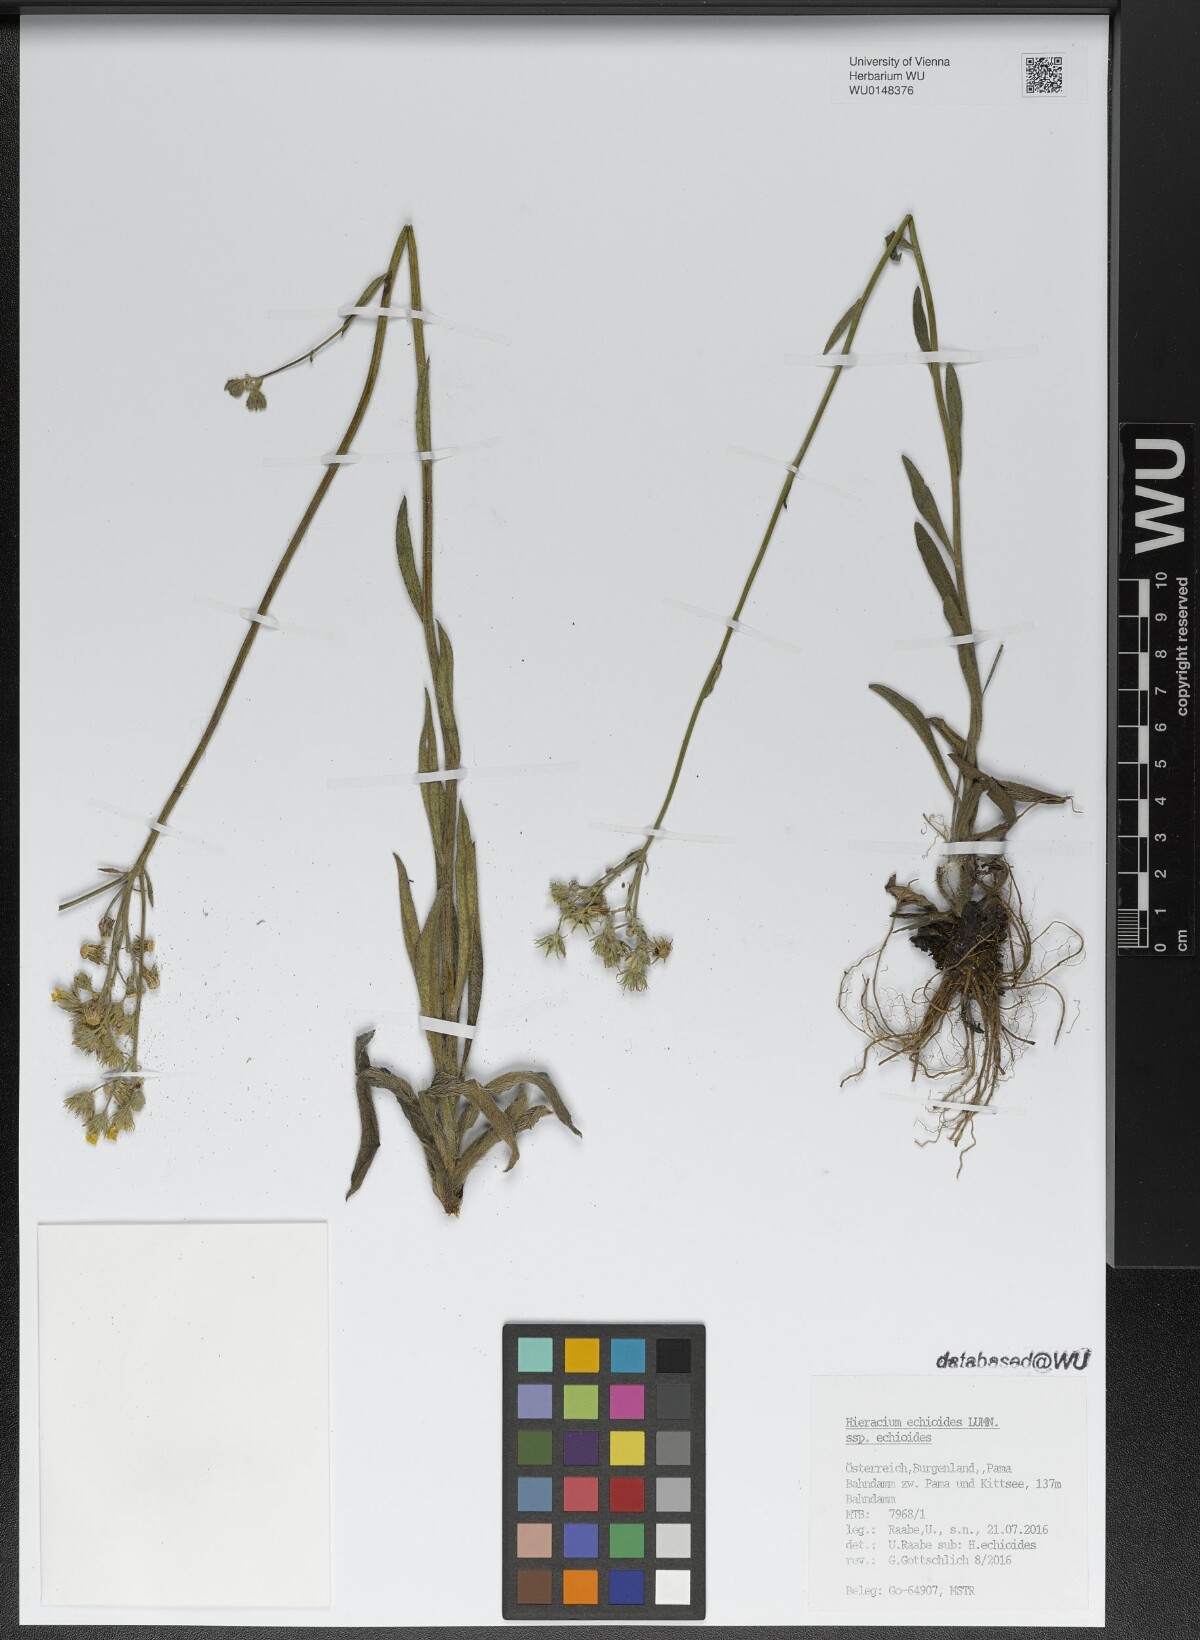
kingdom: Plantae
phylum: Tracheophyta
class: Magnoliopsida
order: Asterales
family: Asteraceae
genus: Pilosella
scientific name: Pilosella echioides
